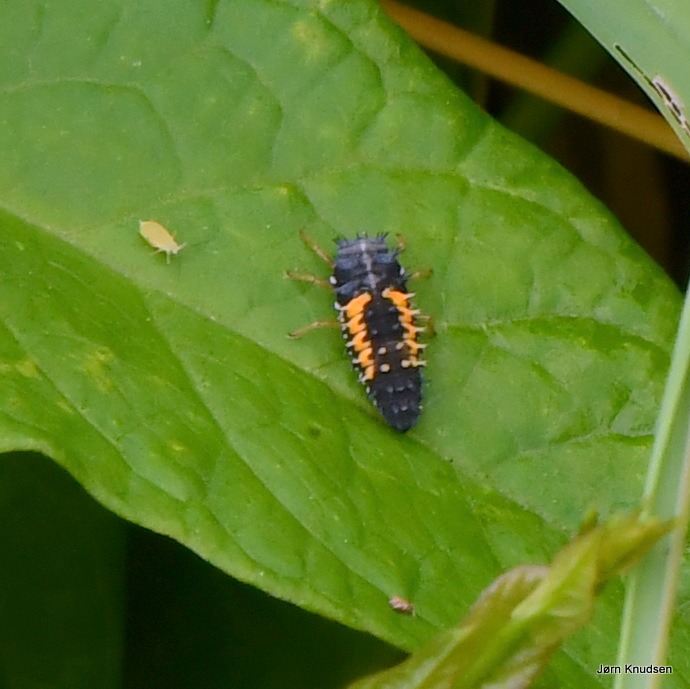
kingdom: Animalia
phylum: Arthropoda
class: Insecta
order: Coleoptera
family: Coccinellidae
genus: Harmonia
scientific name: Harmonia axyridis
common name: Harlekinmariehøne
